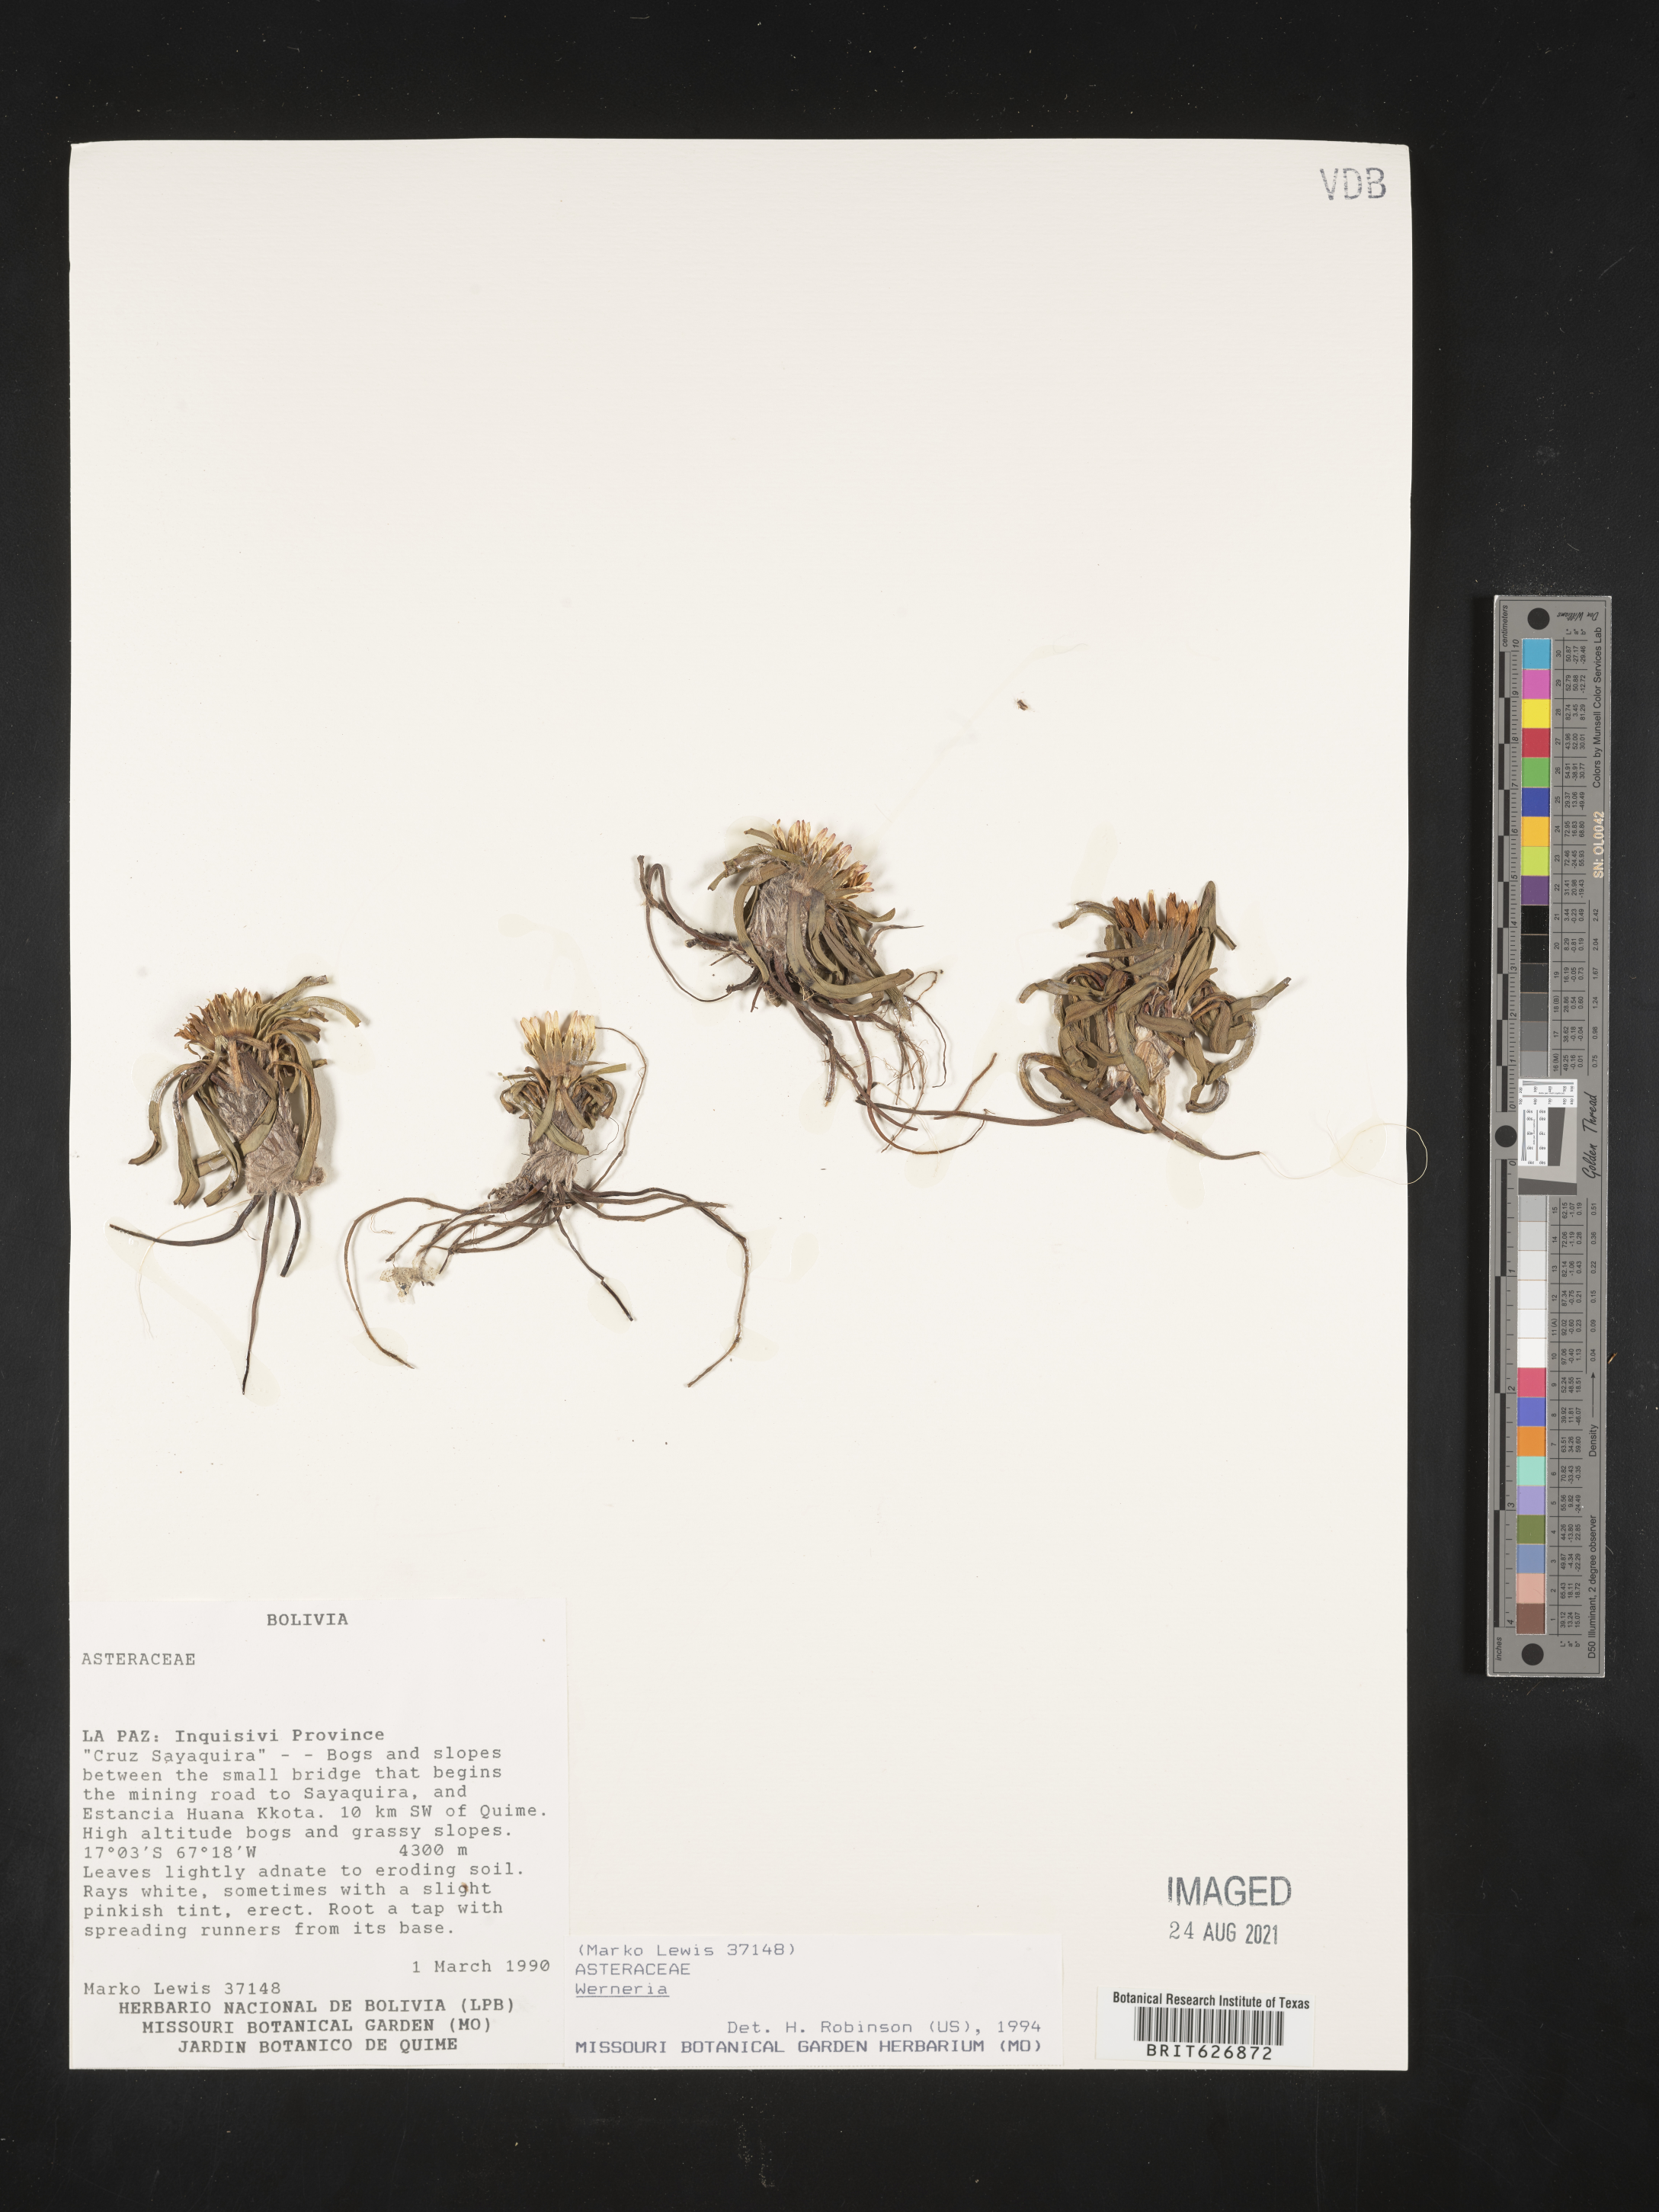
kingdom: Plantae
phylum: Tracheophyta
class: Magnoliopsida
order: Asterales
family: Asteraceae
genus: Werneria
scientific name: Werneria
